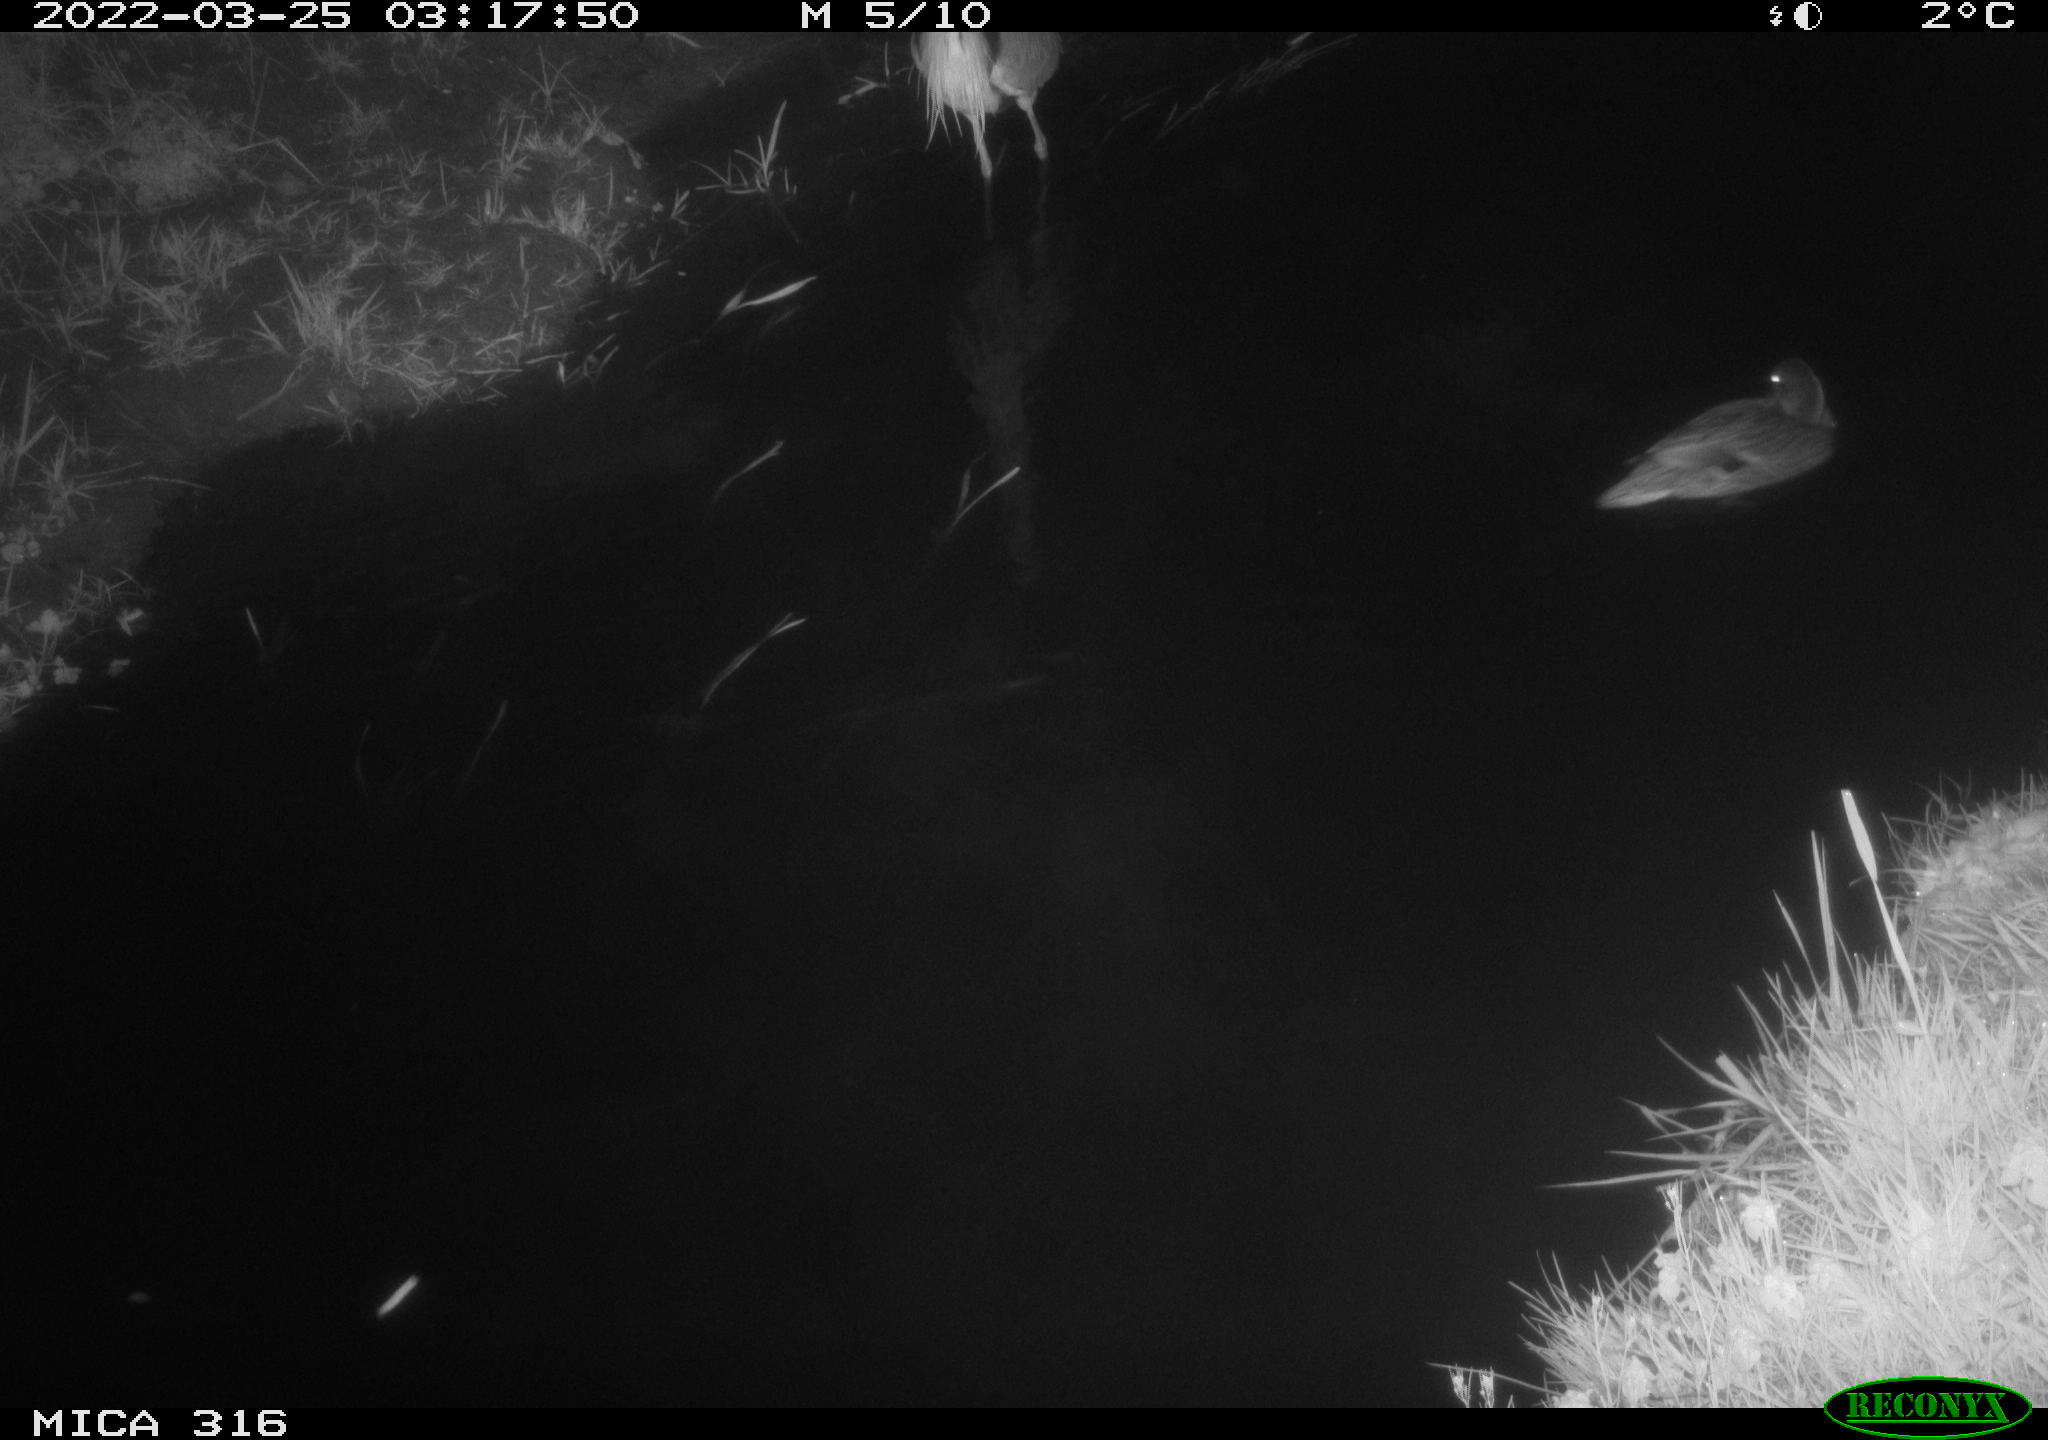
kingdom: Animalia
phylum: Chordata
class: Aves
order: Pelecaniformes
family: Ardeidae
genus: Ardea
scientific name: Ardea
